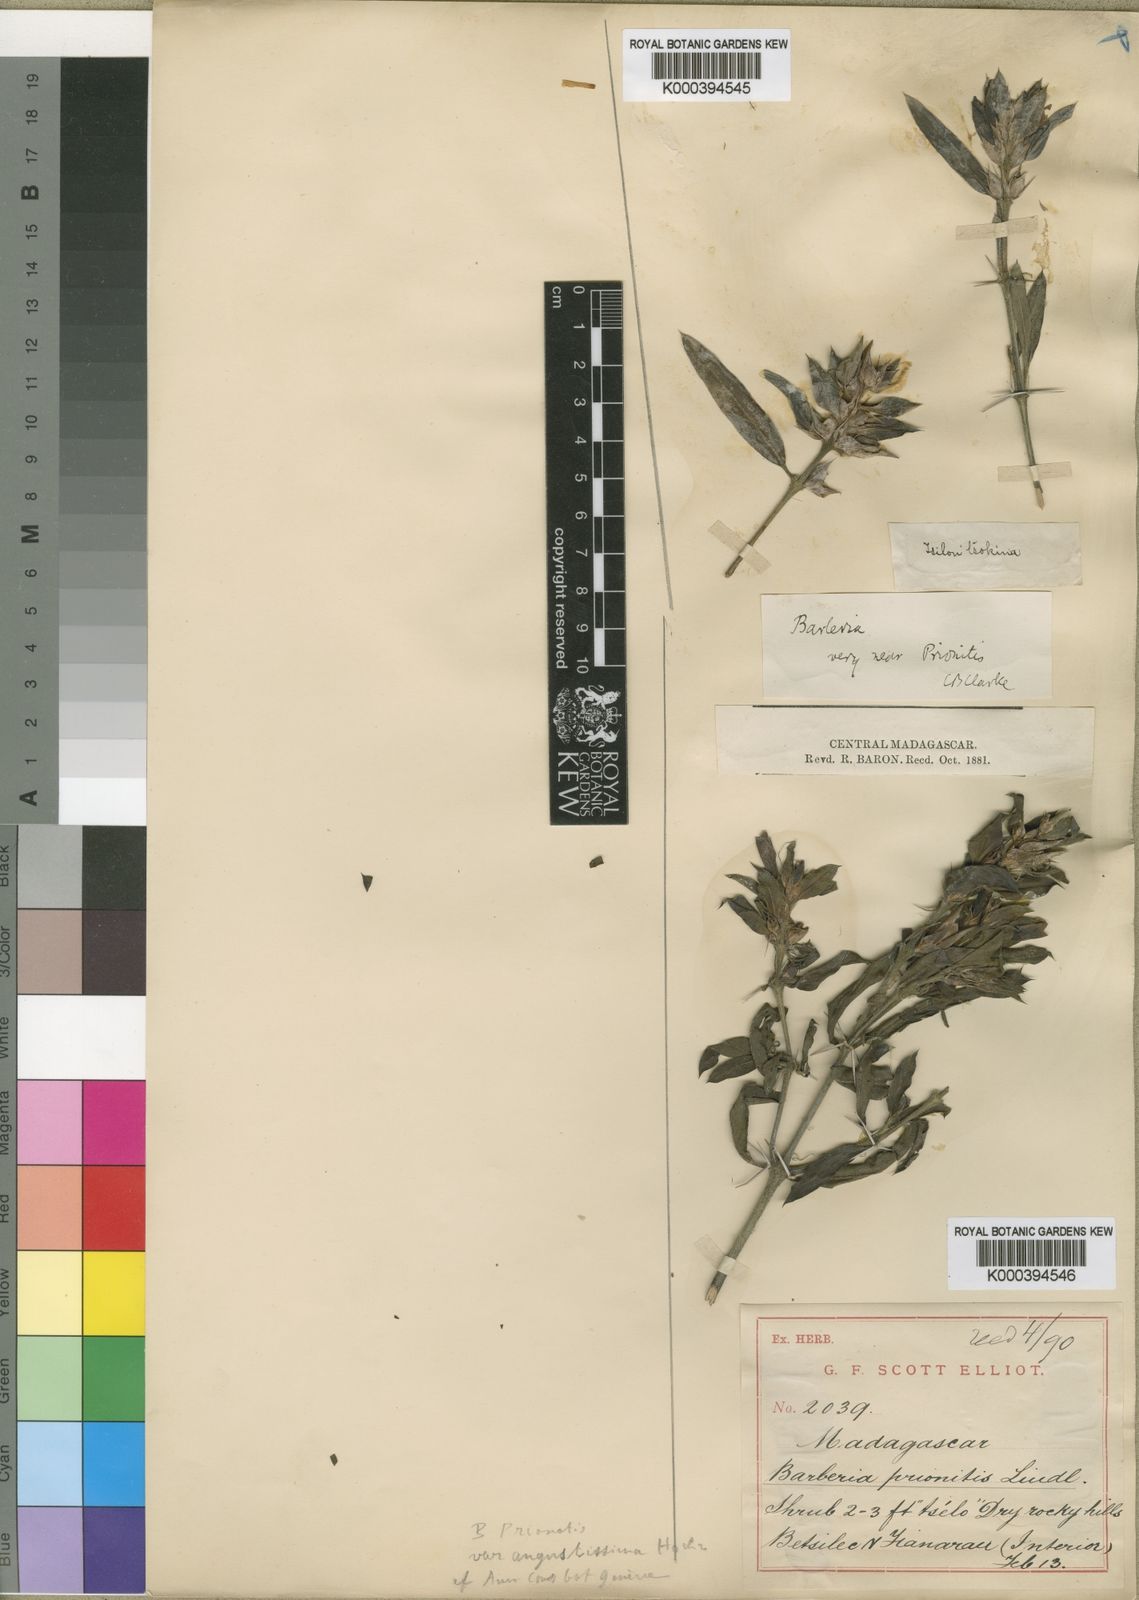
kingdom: Plantae
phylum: Tracheophyta
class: Magnoliopsida
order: Lamiales
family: Acanthaceae
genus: Barleria
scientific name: Barleria prionitis
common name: Barleria
